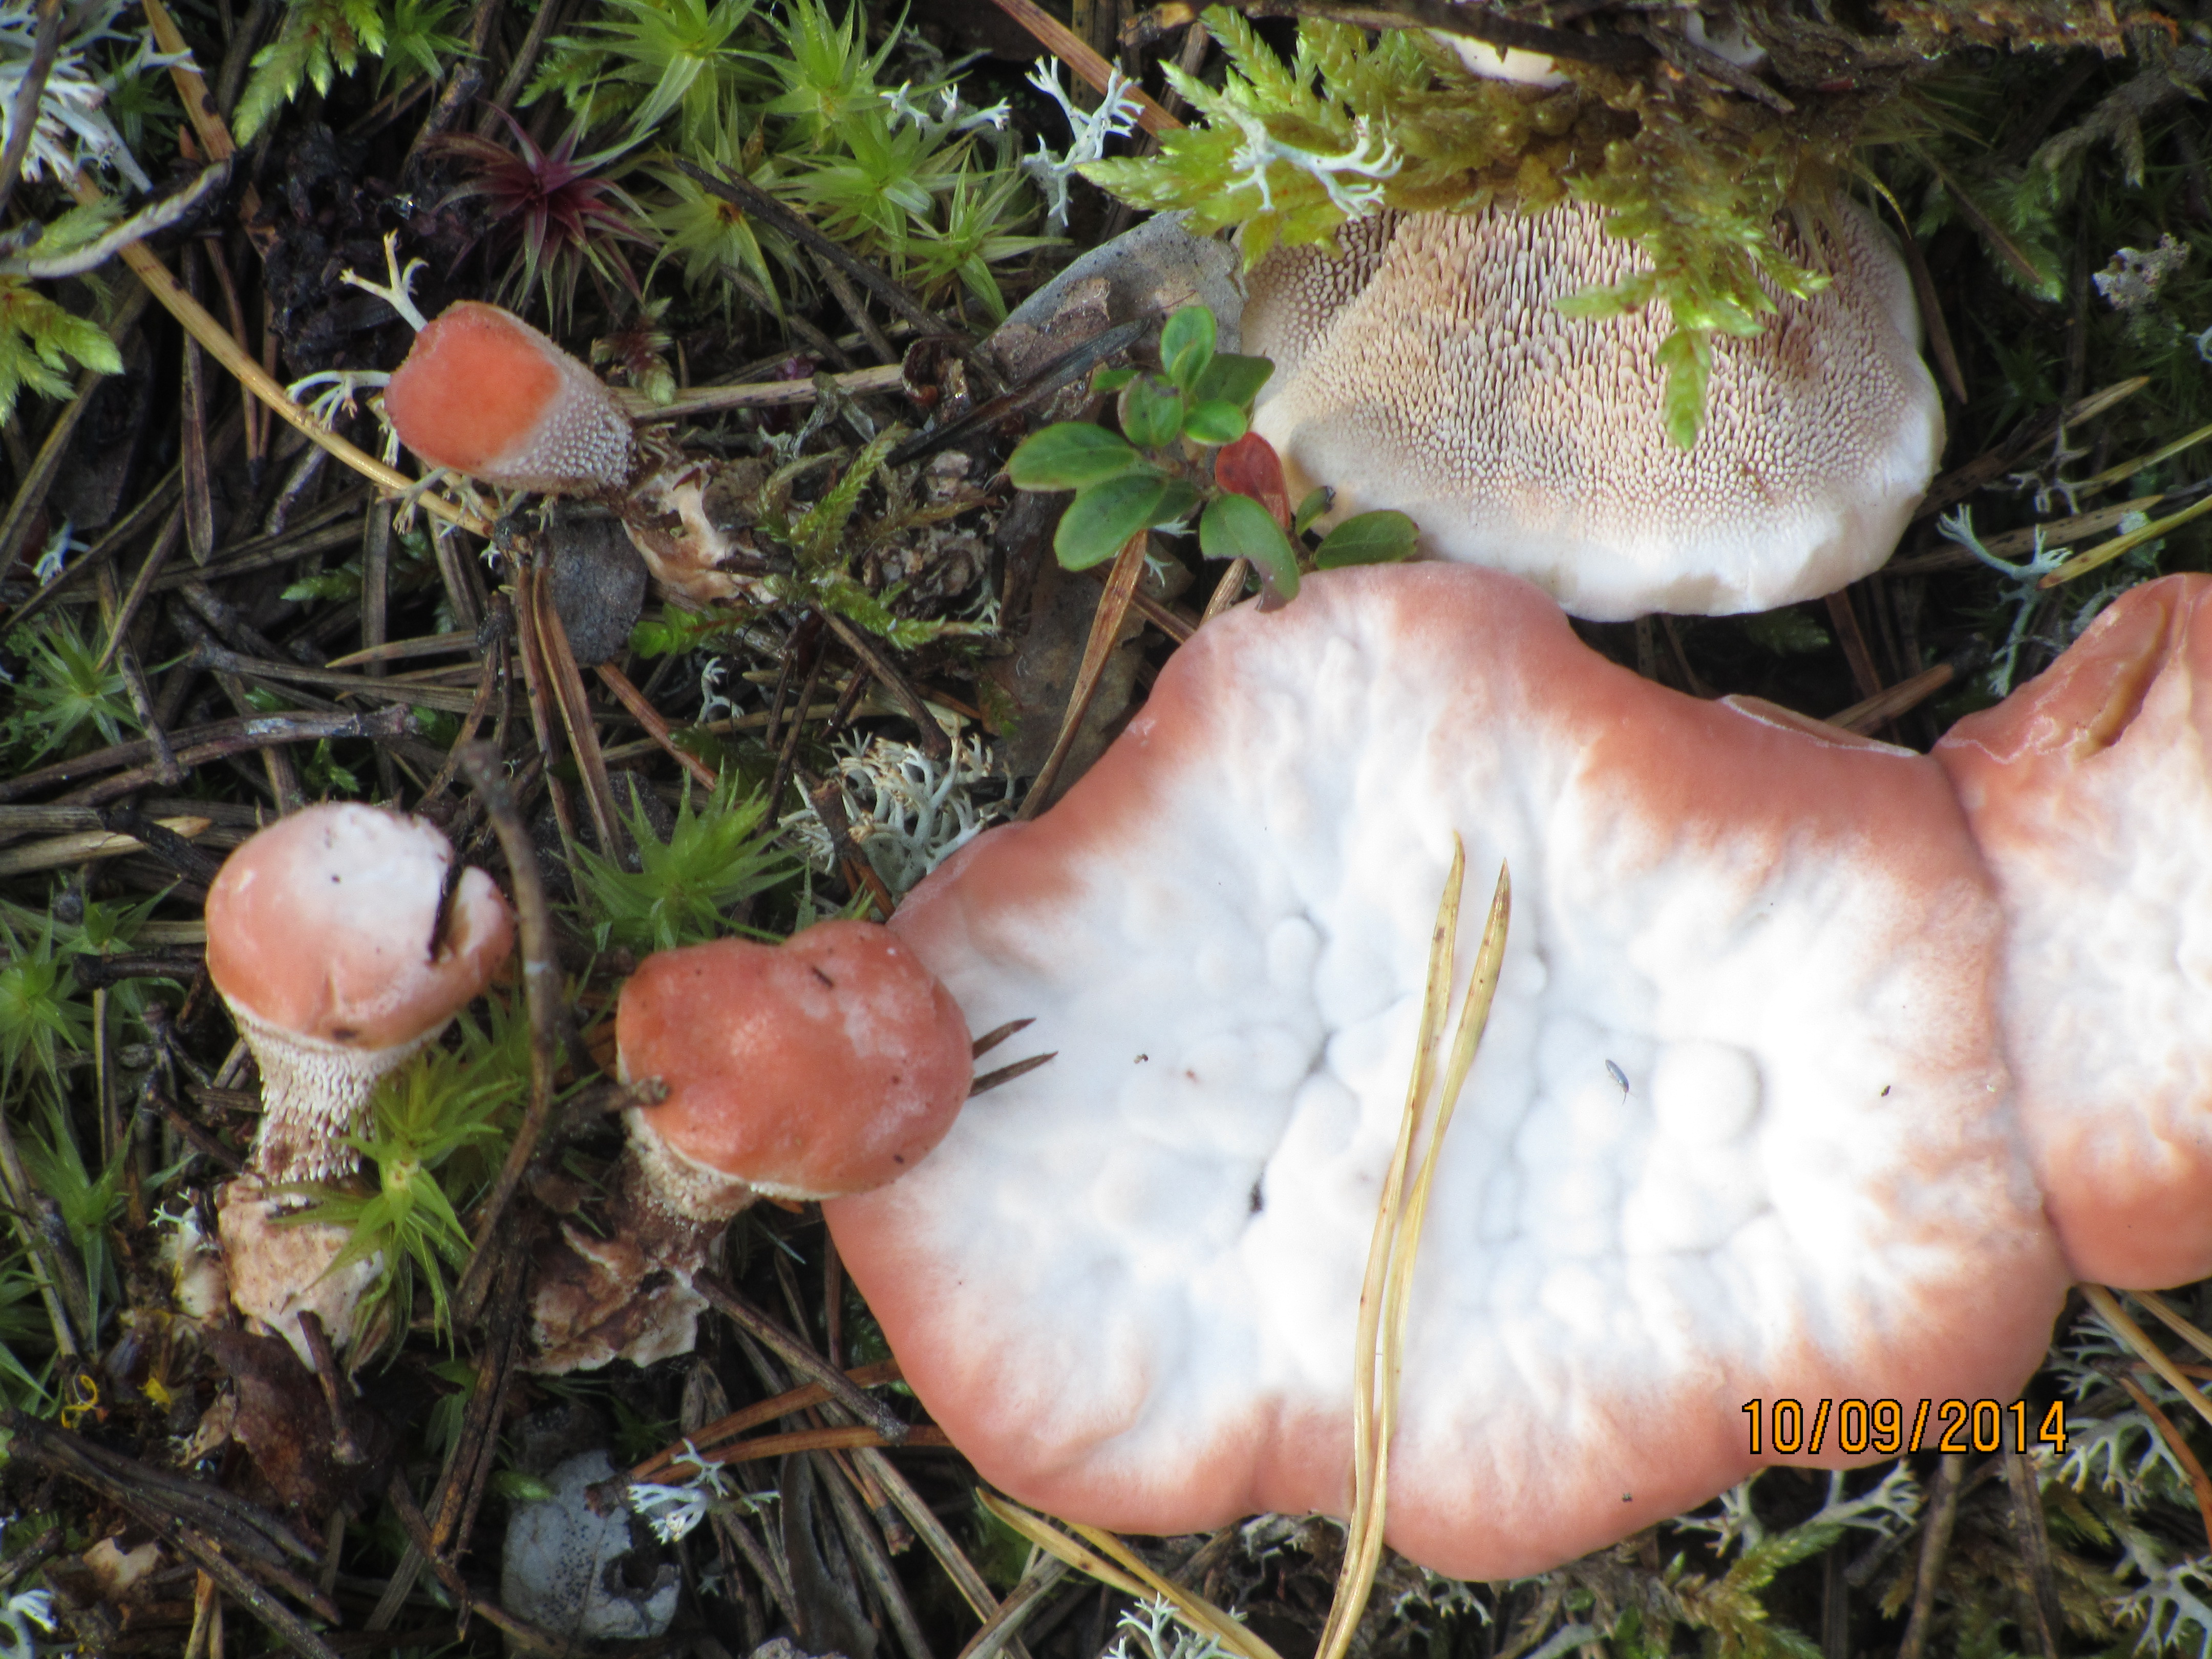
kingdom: Fungi
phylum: Basidiomycota
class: Agaricomycetes
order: Thelephorales
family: Bankeraceae
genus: Hydnellum
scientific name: Hydnellum peckii
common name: Devil's tooth
